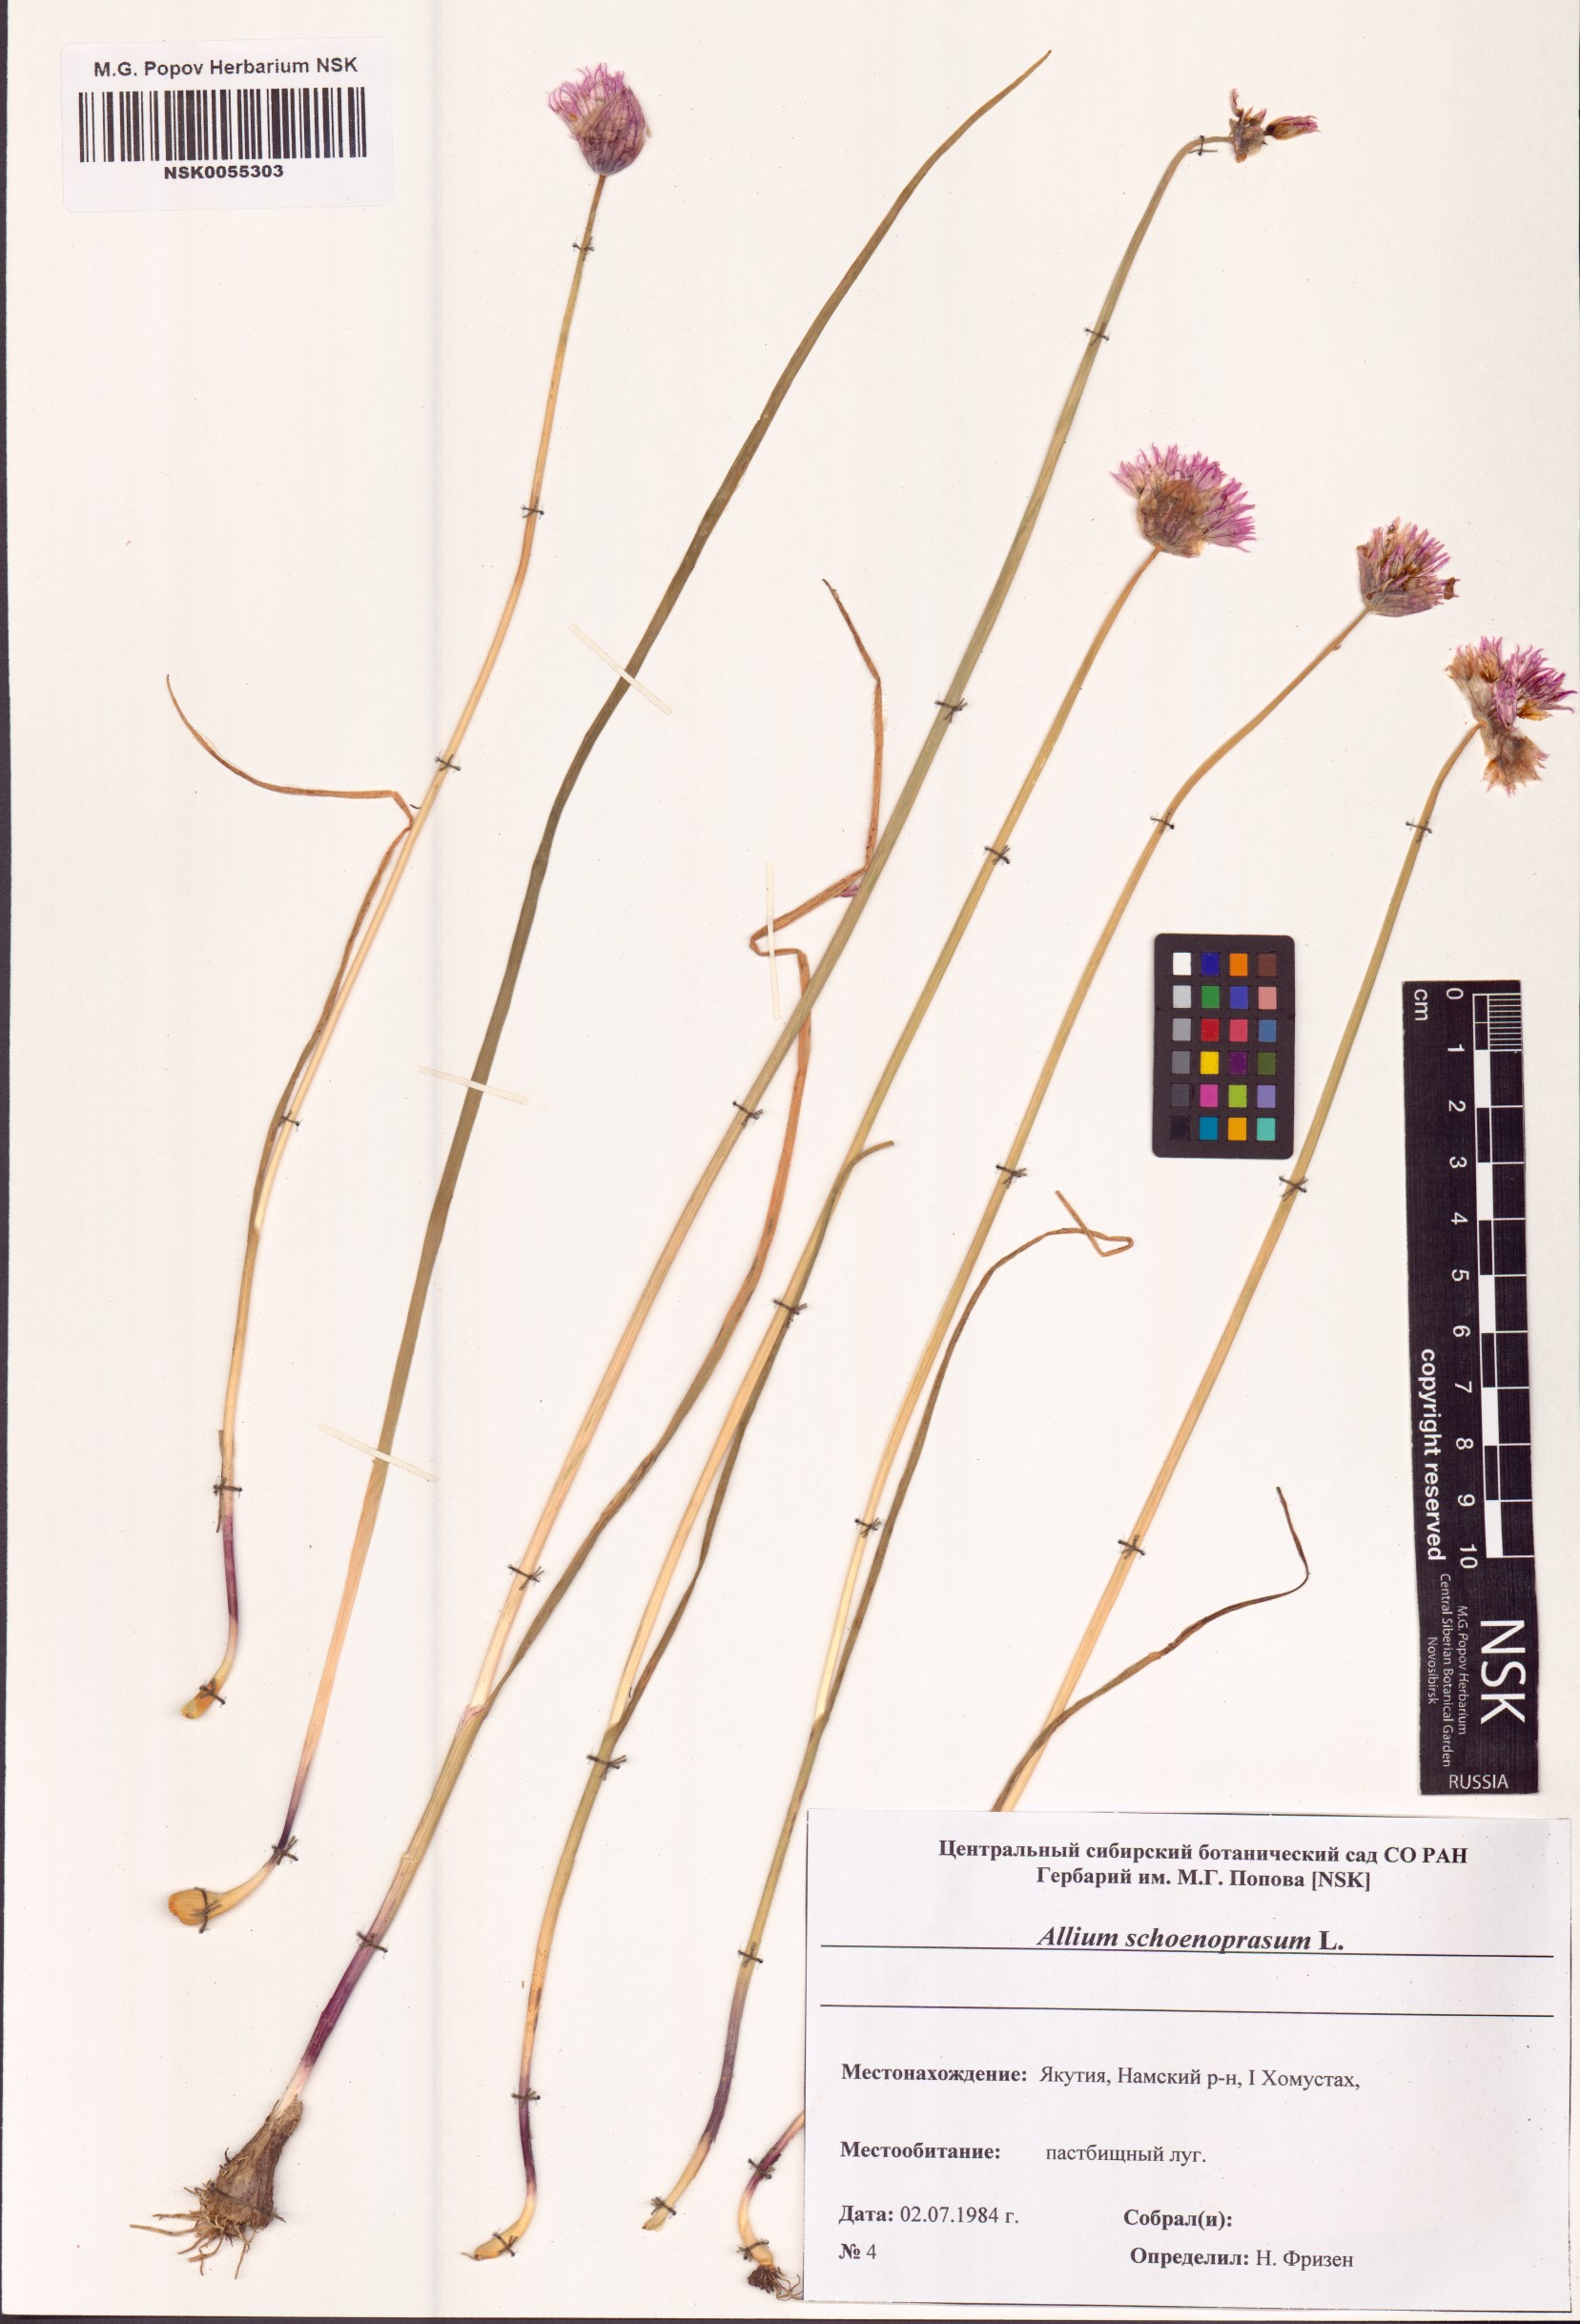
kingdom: Plantae
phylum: Tracheophyta
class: Liliopsida
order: Asparagales
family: Amaryllidaceae
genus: Allium
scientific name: Allium schoenoprasum
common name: Chives
